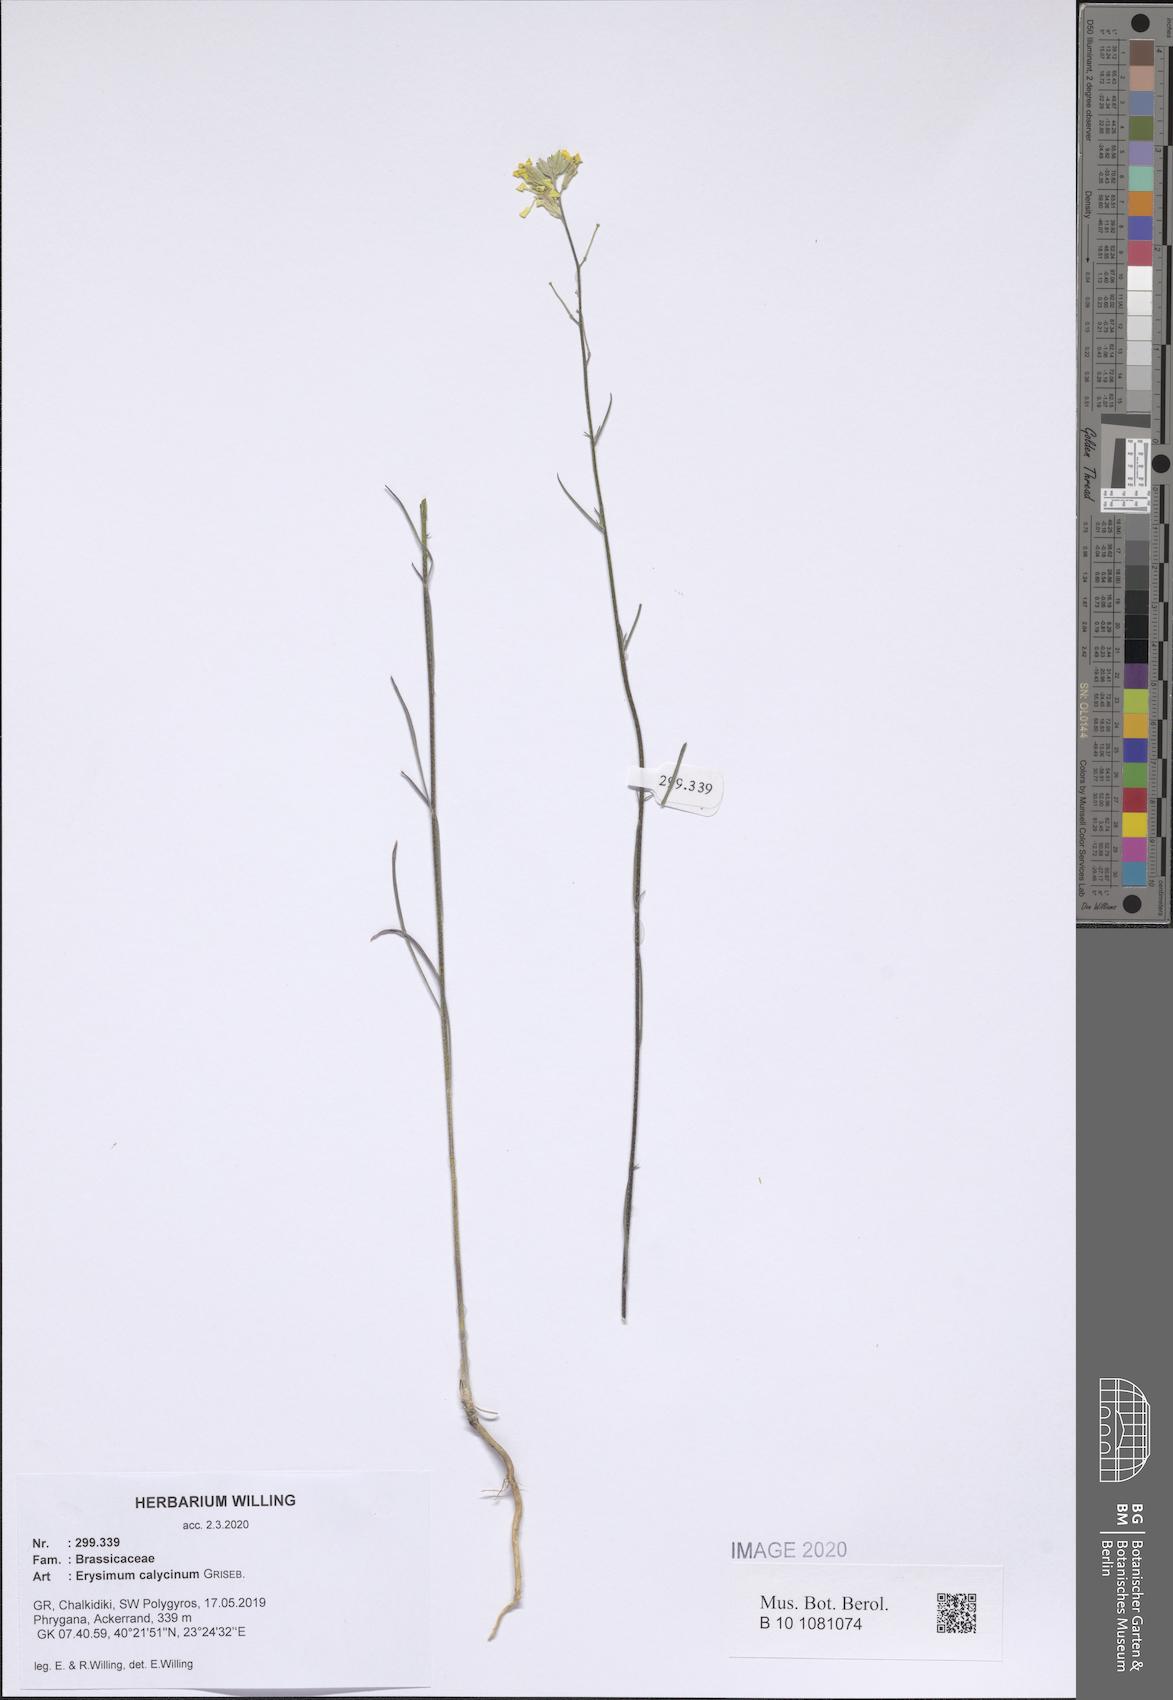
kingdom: Plantae
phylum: Tracheophyta
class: Magnoliopsida
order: Brassicales
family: Brassicaceae
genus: Erysimum
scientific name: Erysimum calycinum
